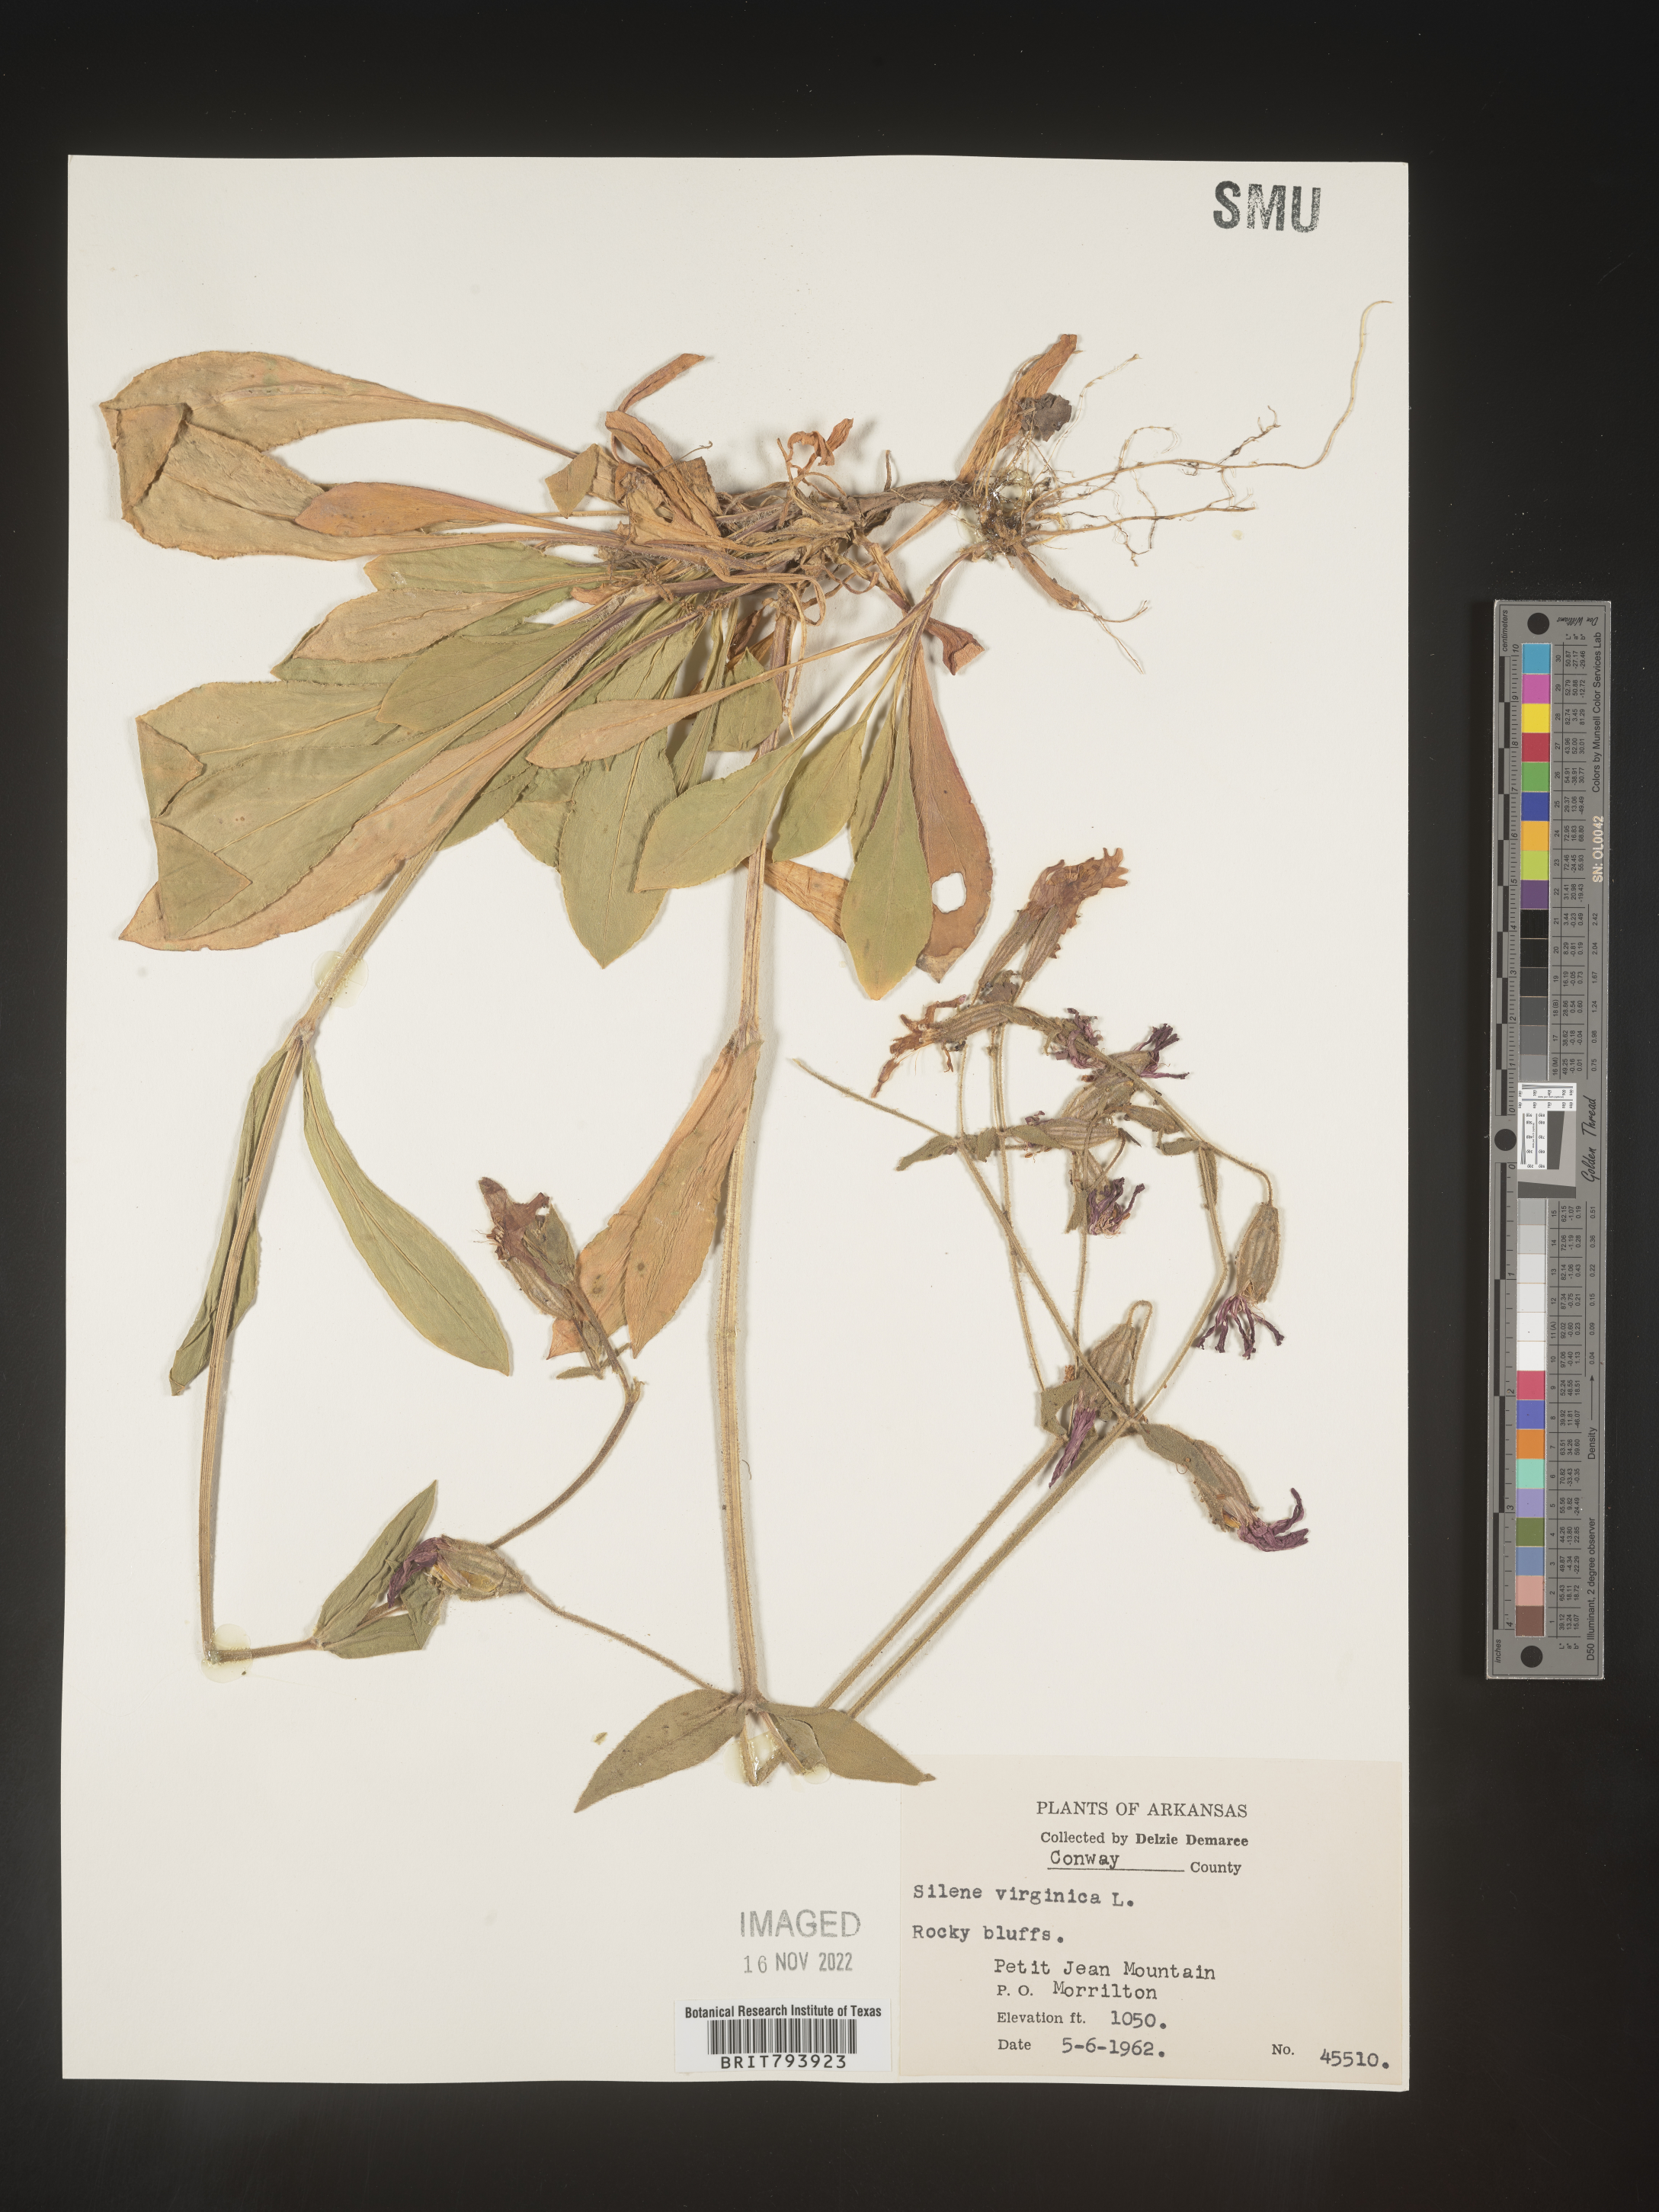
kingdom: Plantae
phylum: Tracheophyta
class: Magnoliopsida
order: Caryophyllales
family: Caryophyllaceae
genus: Silene
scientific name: Silene virginica
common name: Fire-pink
